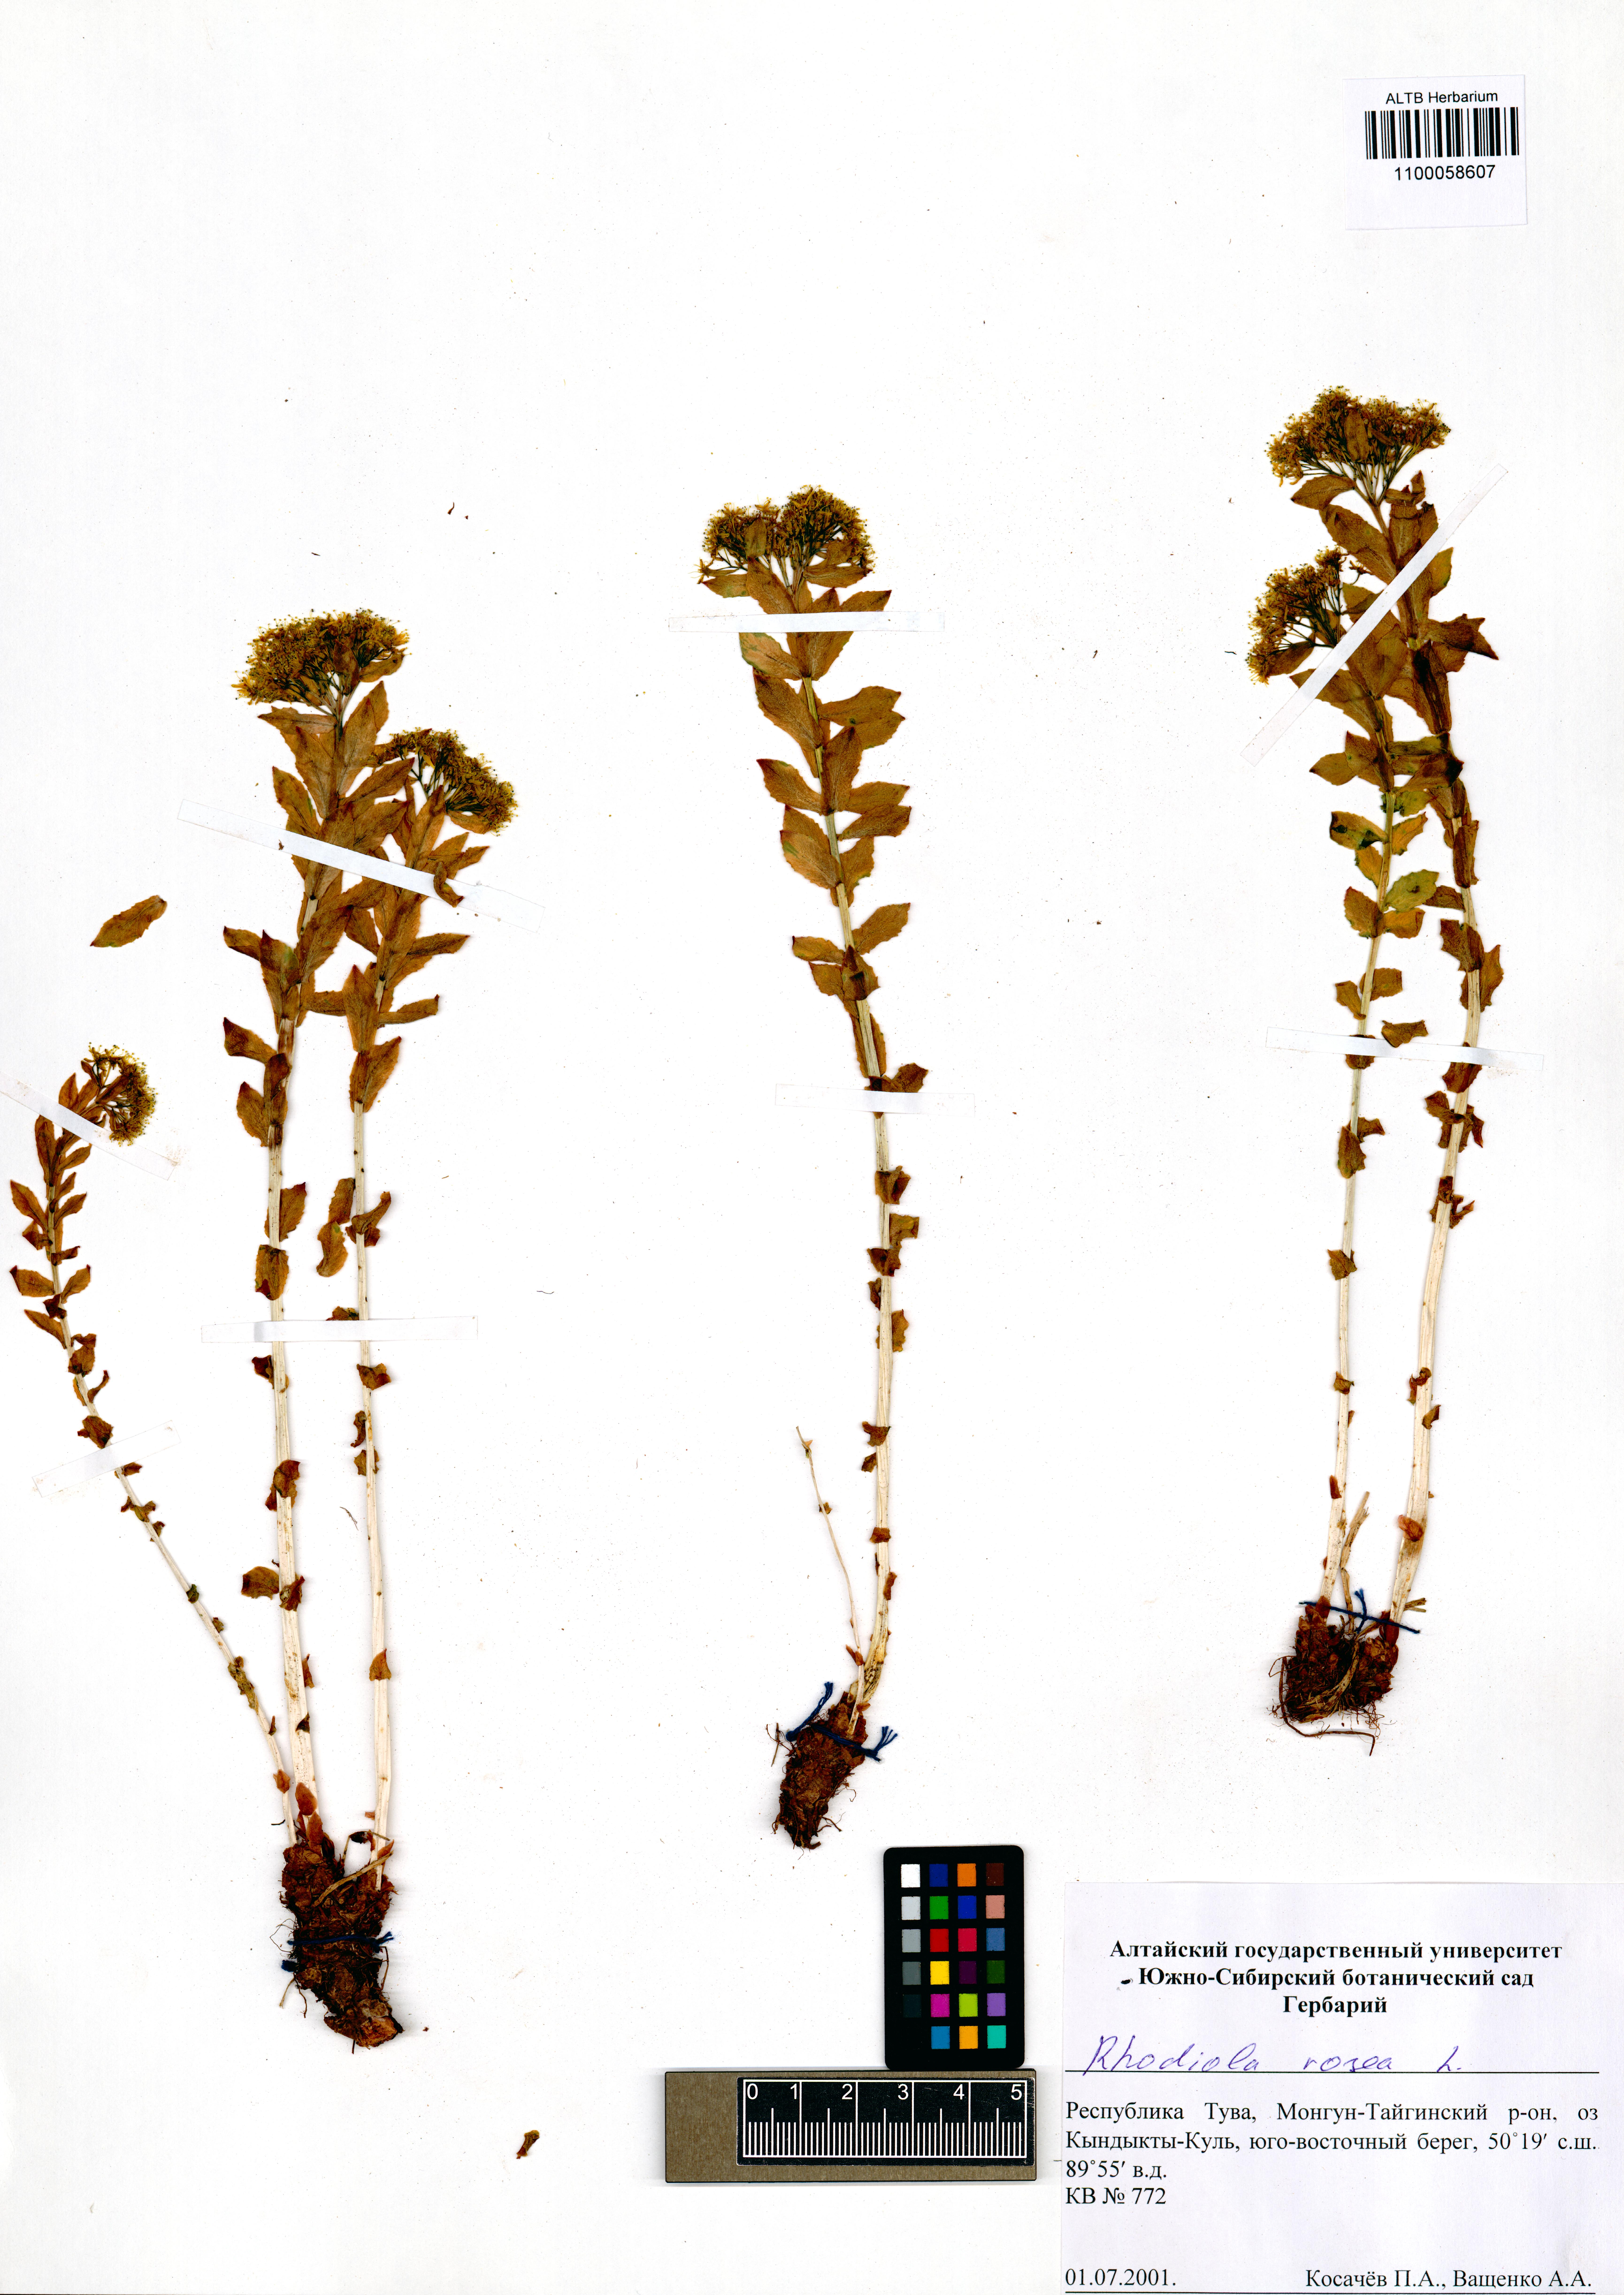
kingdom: Plantae
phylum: Tracheophyta
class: Magnoliopsida
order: Saxifragales
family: Crassulaceae
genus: Rhodiola
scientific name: Rhodiola rosea
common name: Roseroot
